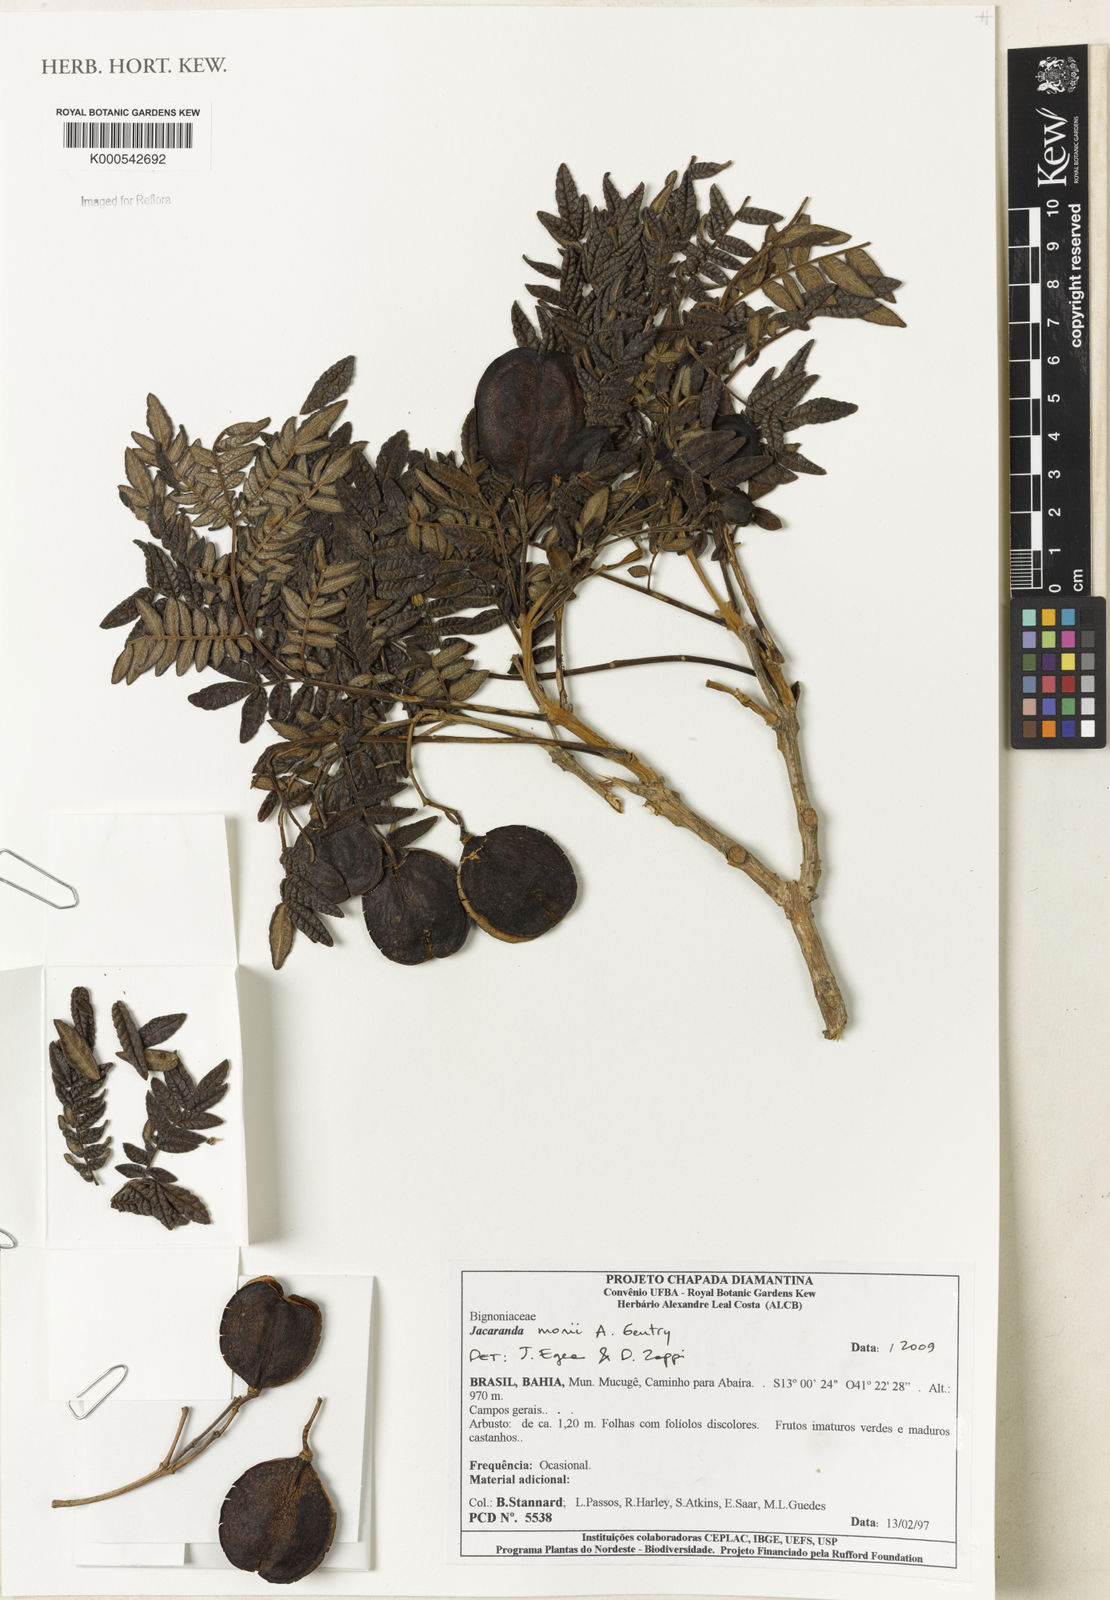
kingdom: Plantae
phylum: Tracheophyta
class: Magnoliopsida
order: Lamiales
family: Bignoniaceae
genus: Jacaranda
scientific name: Jacaranda ulei
